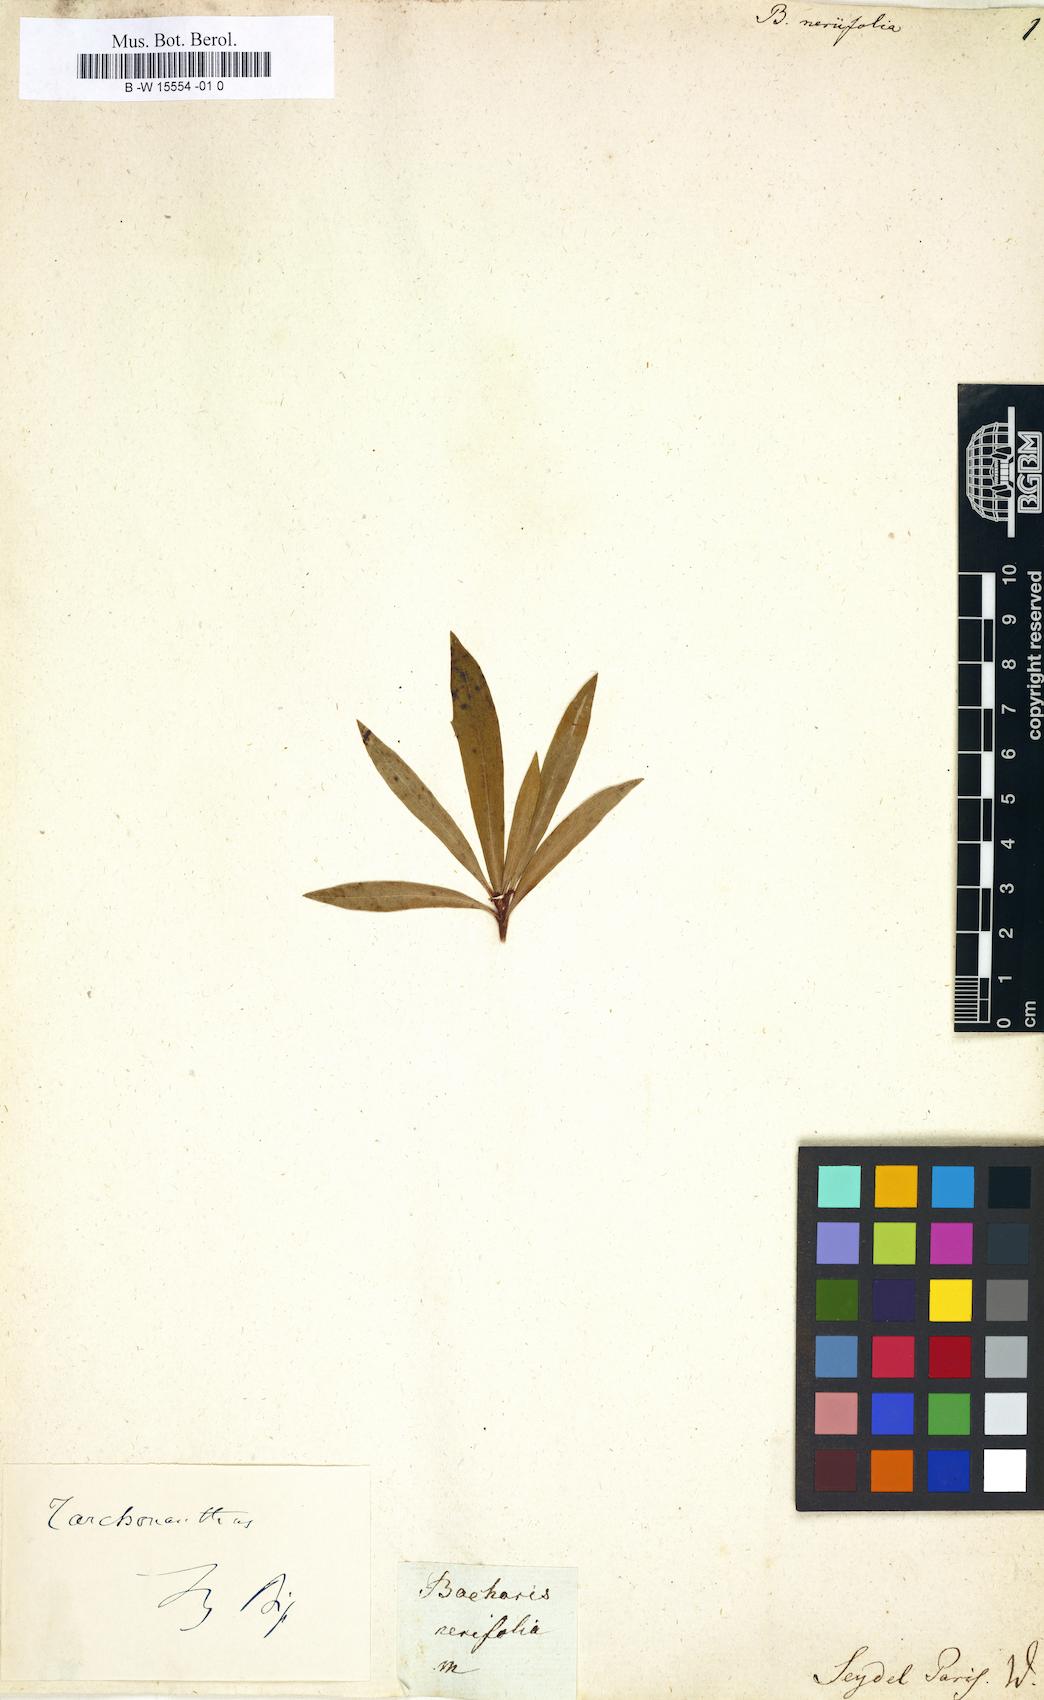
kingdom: Plantae
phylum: Tracheophyta
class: Magnoliopsida
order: Asterales
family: Asteraceae
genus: Brachylaena
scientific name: Brachylaena neriifolia
